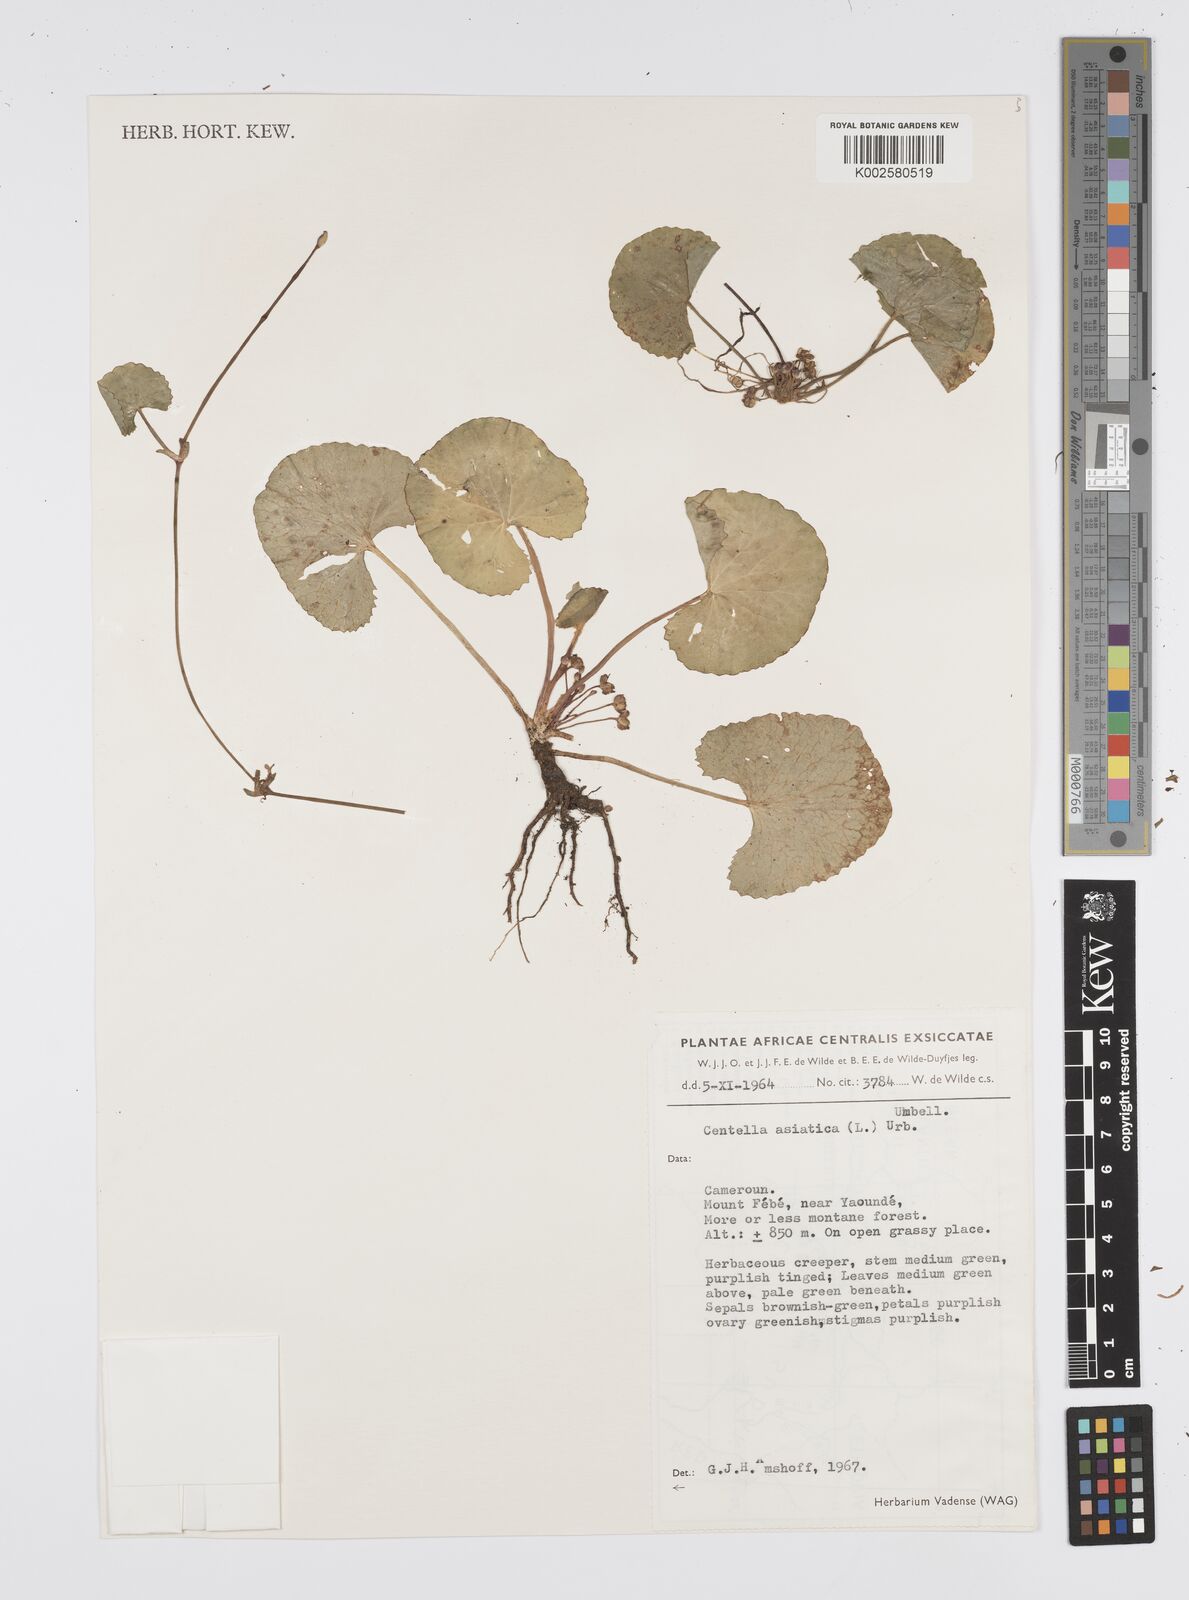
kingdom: Plantae
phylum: Tracheophyta
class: Magnoliopsida
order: Apiales
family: Apiaceae
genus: Centella
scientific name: Centella asiatica
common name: Spadeleaf
